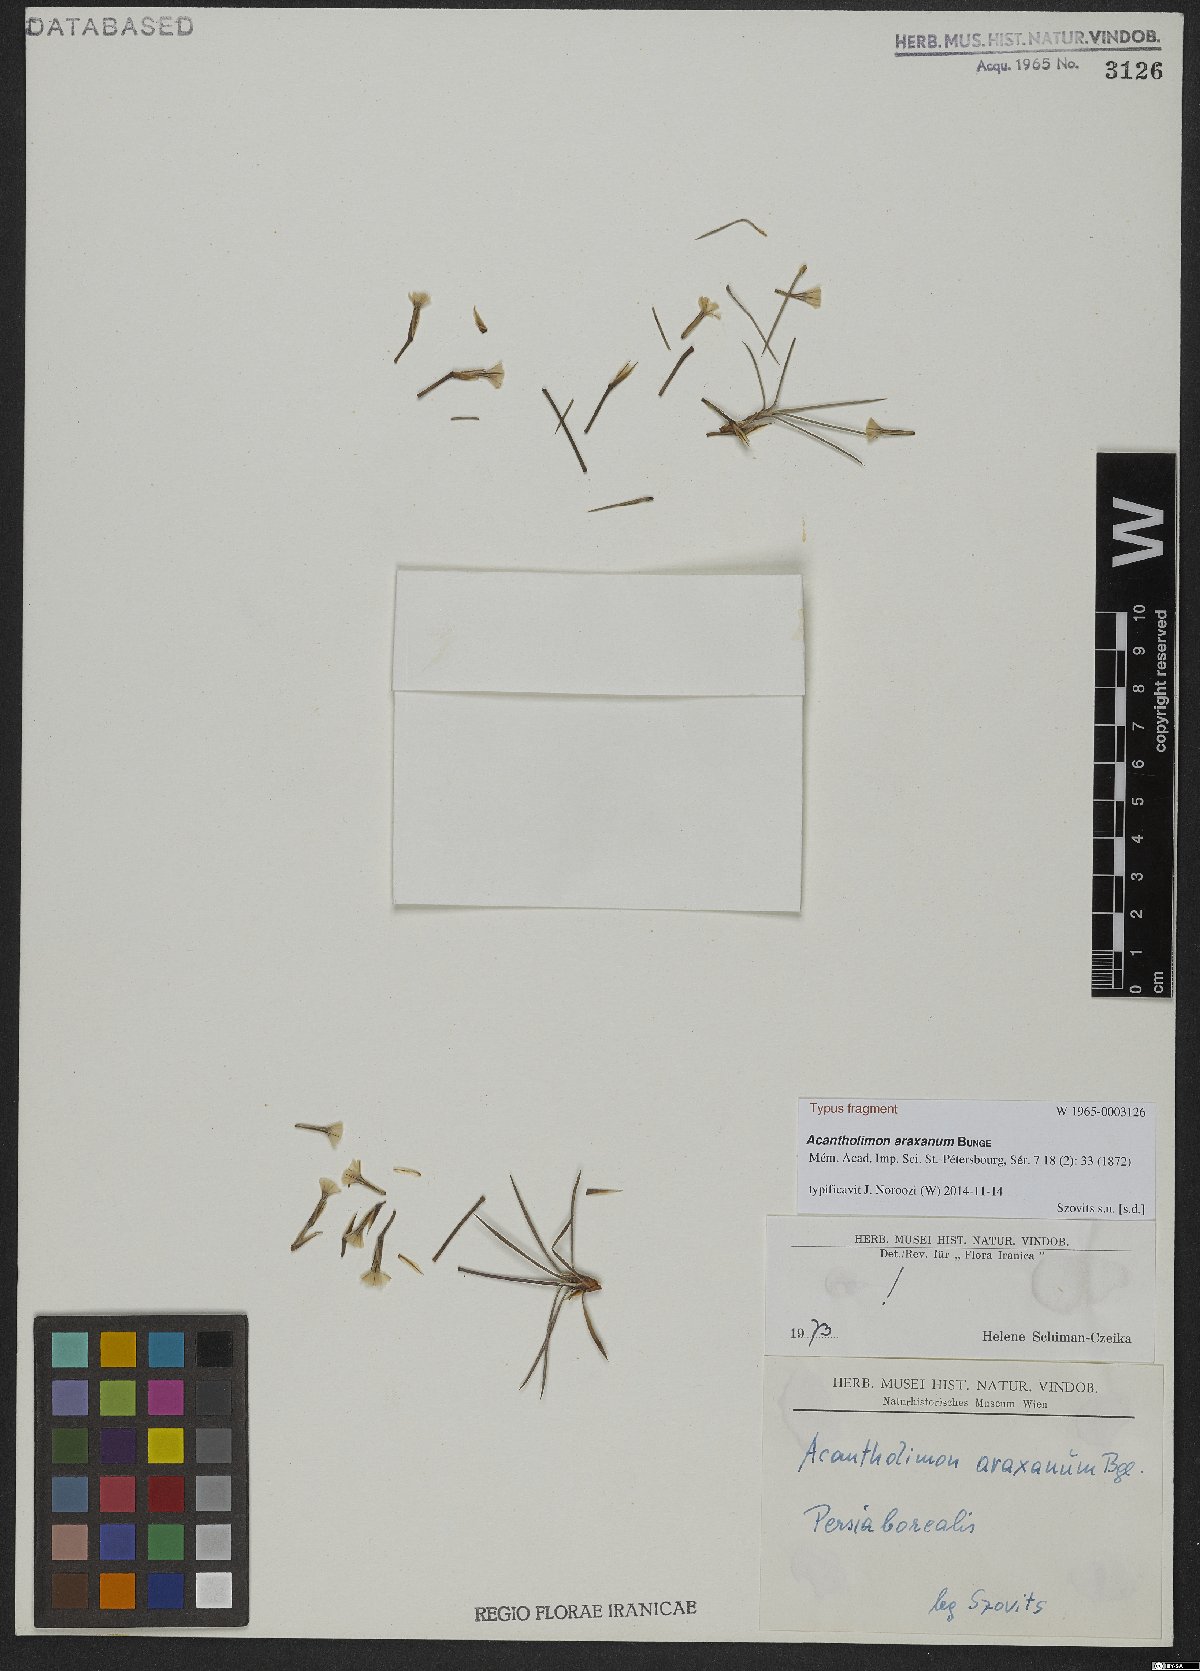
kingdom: Plantae
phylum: Tracheophyta
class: Magnoliopsida
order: Caryophyllales
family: Plumbaginaceae
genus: Acantholimon
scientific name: Acantholimon araxanum
